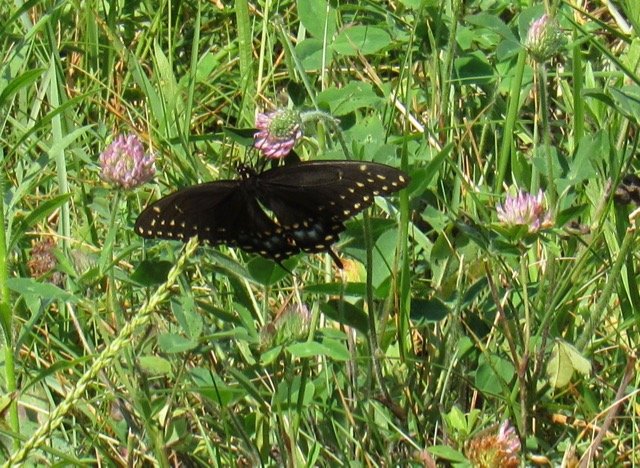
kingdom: Animalia
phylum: Arthropoda
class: Insecta
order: Lepidoptera
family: Papilionidae
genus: Papilio
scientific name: Papilio polyxenes
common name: Black Swallowtail
